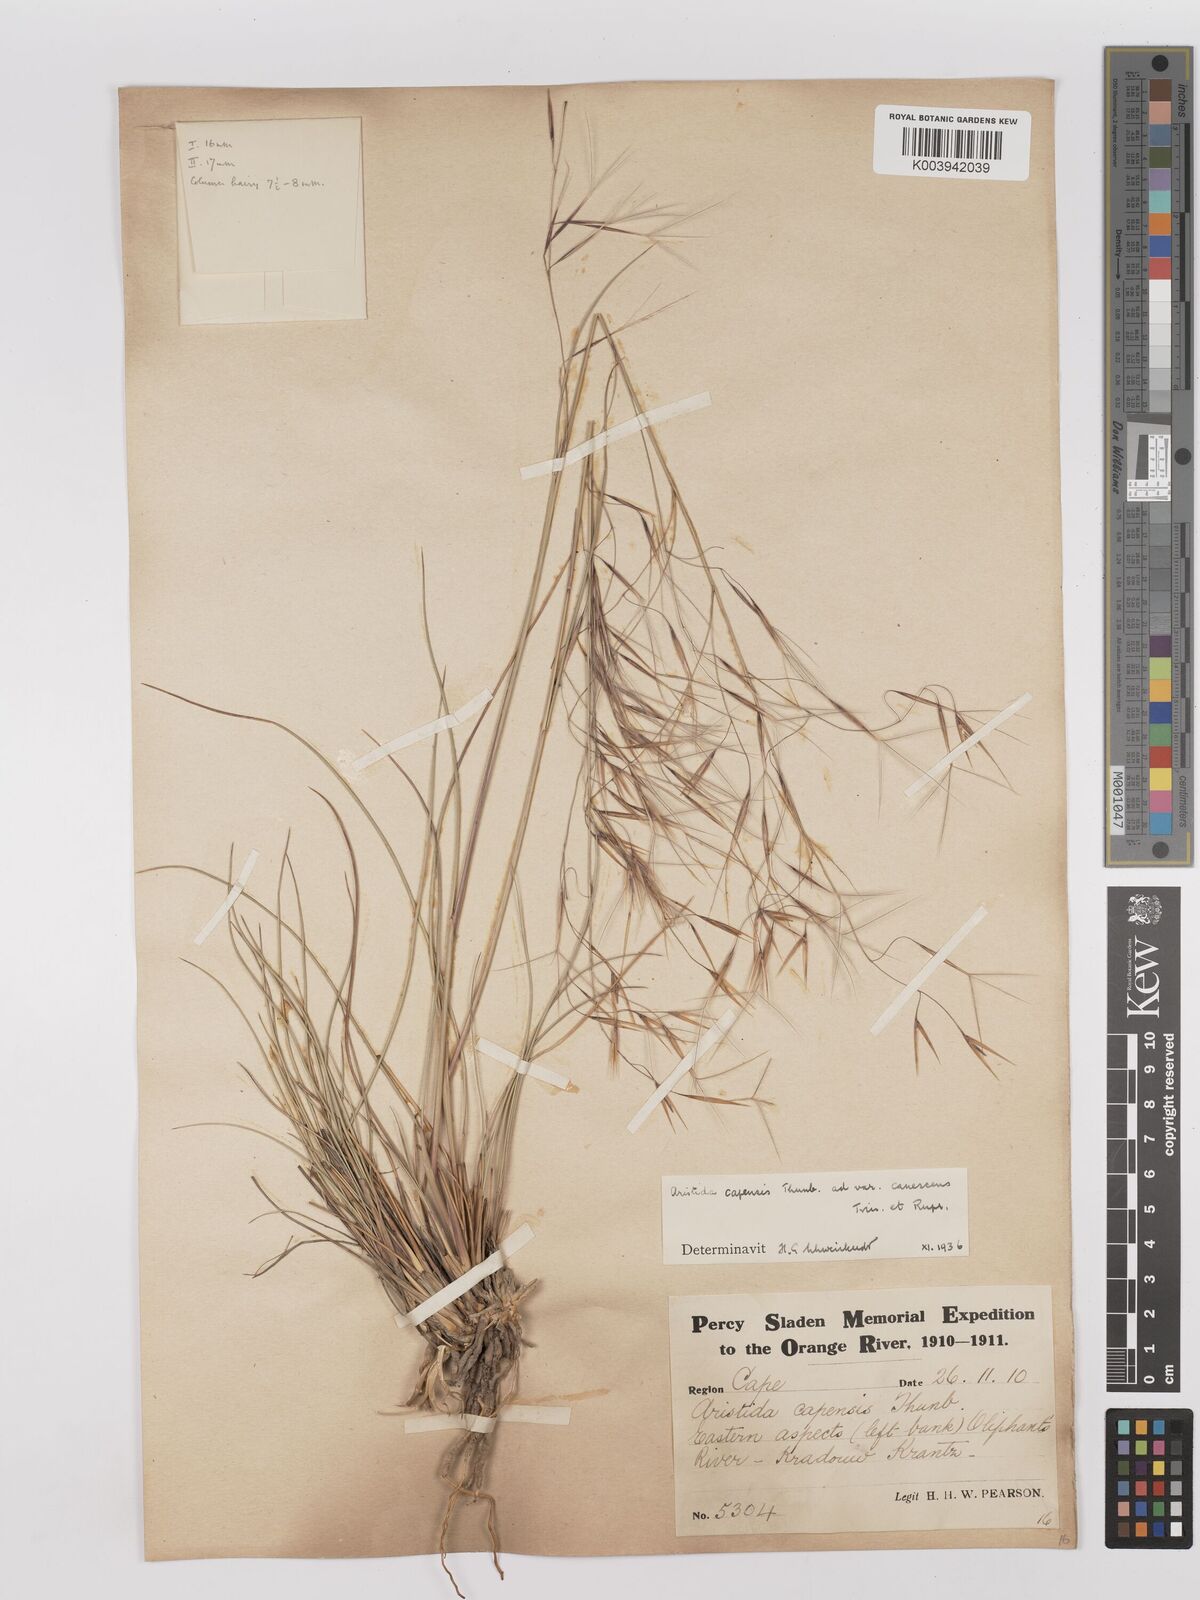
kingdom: Plantae
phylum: Tracheophyta
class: Liliopsida
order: Poales
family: Poaceae
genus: Stipagrostis
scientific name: Stipagrostis zeyheri
